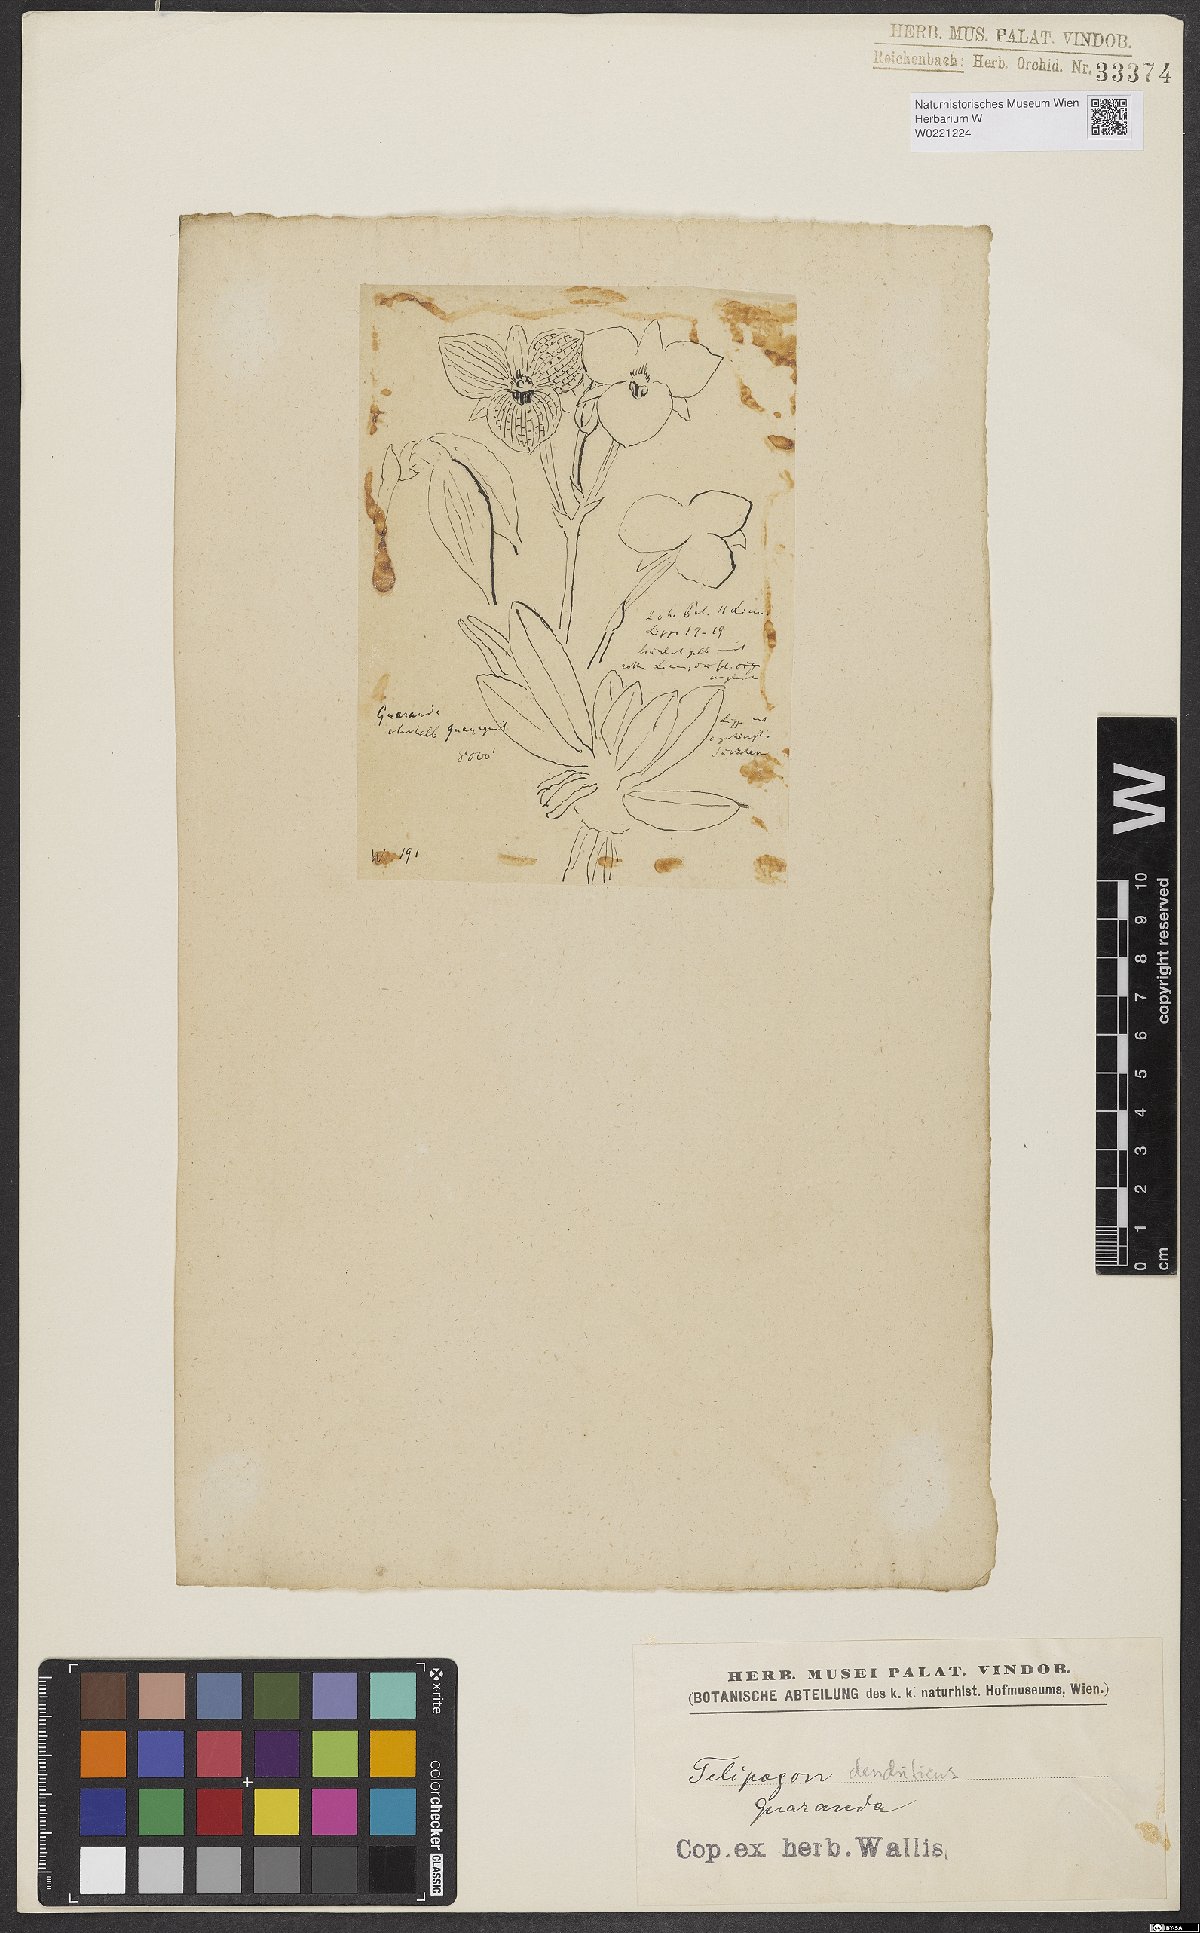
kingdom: Plantae
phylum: Tracheophyta
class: Liliopsida
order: Asparagales
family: Orchidaceae
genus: Telipogon
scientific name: Telipogon dendriticus
